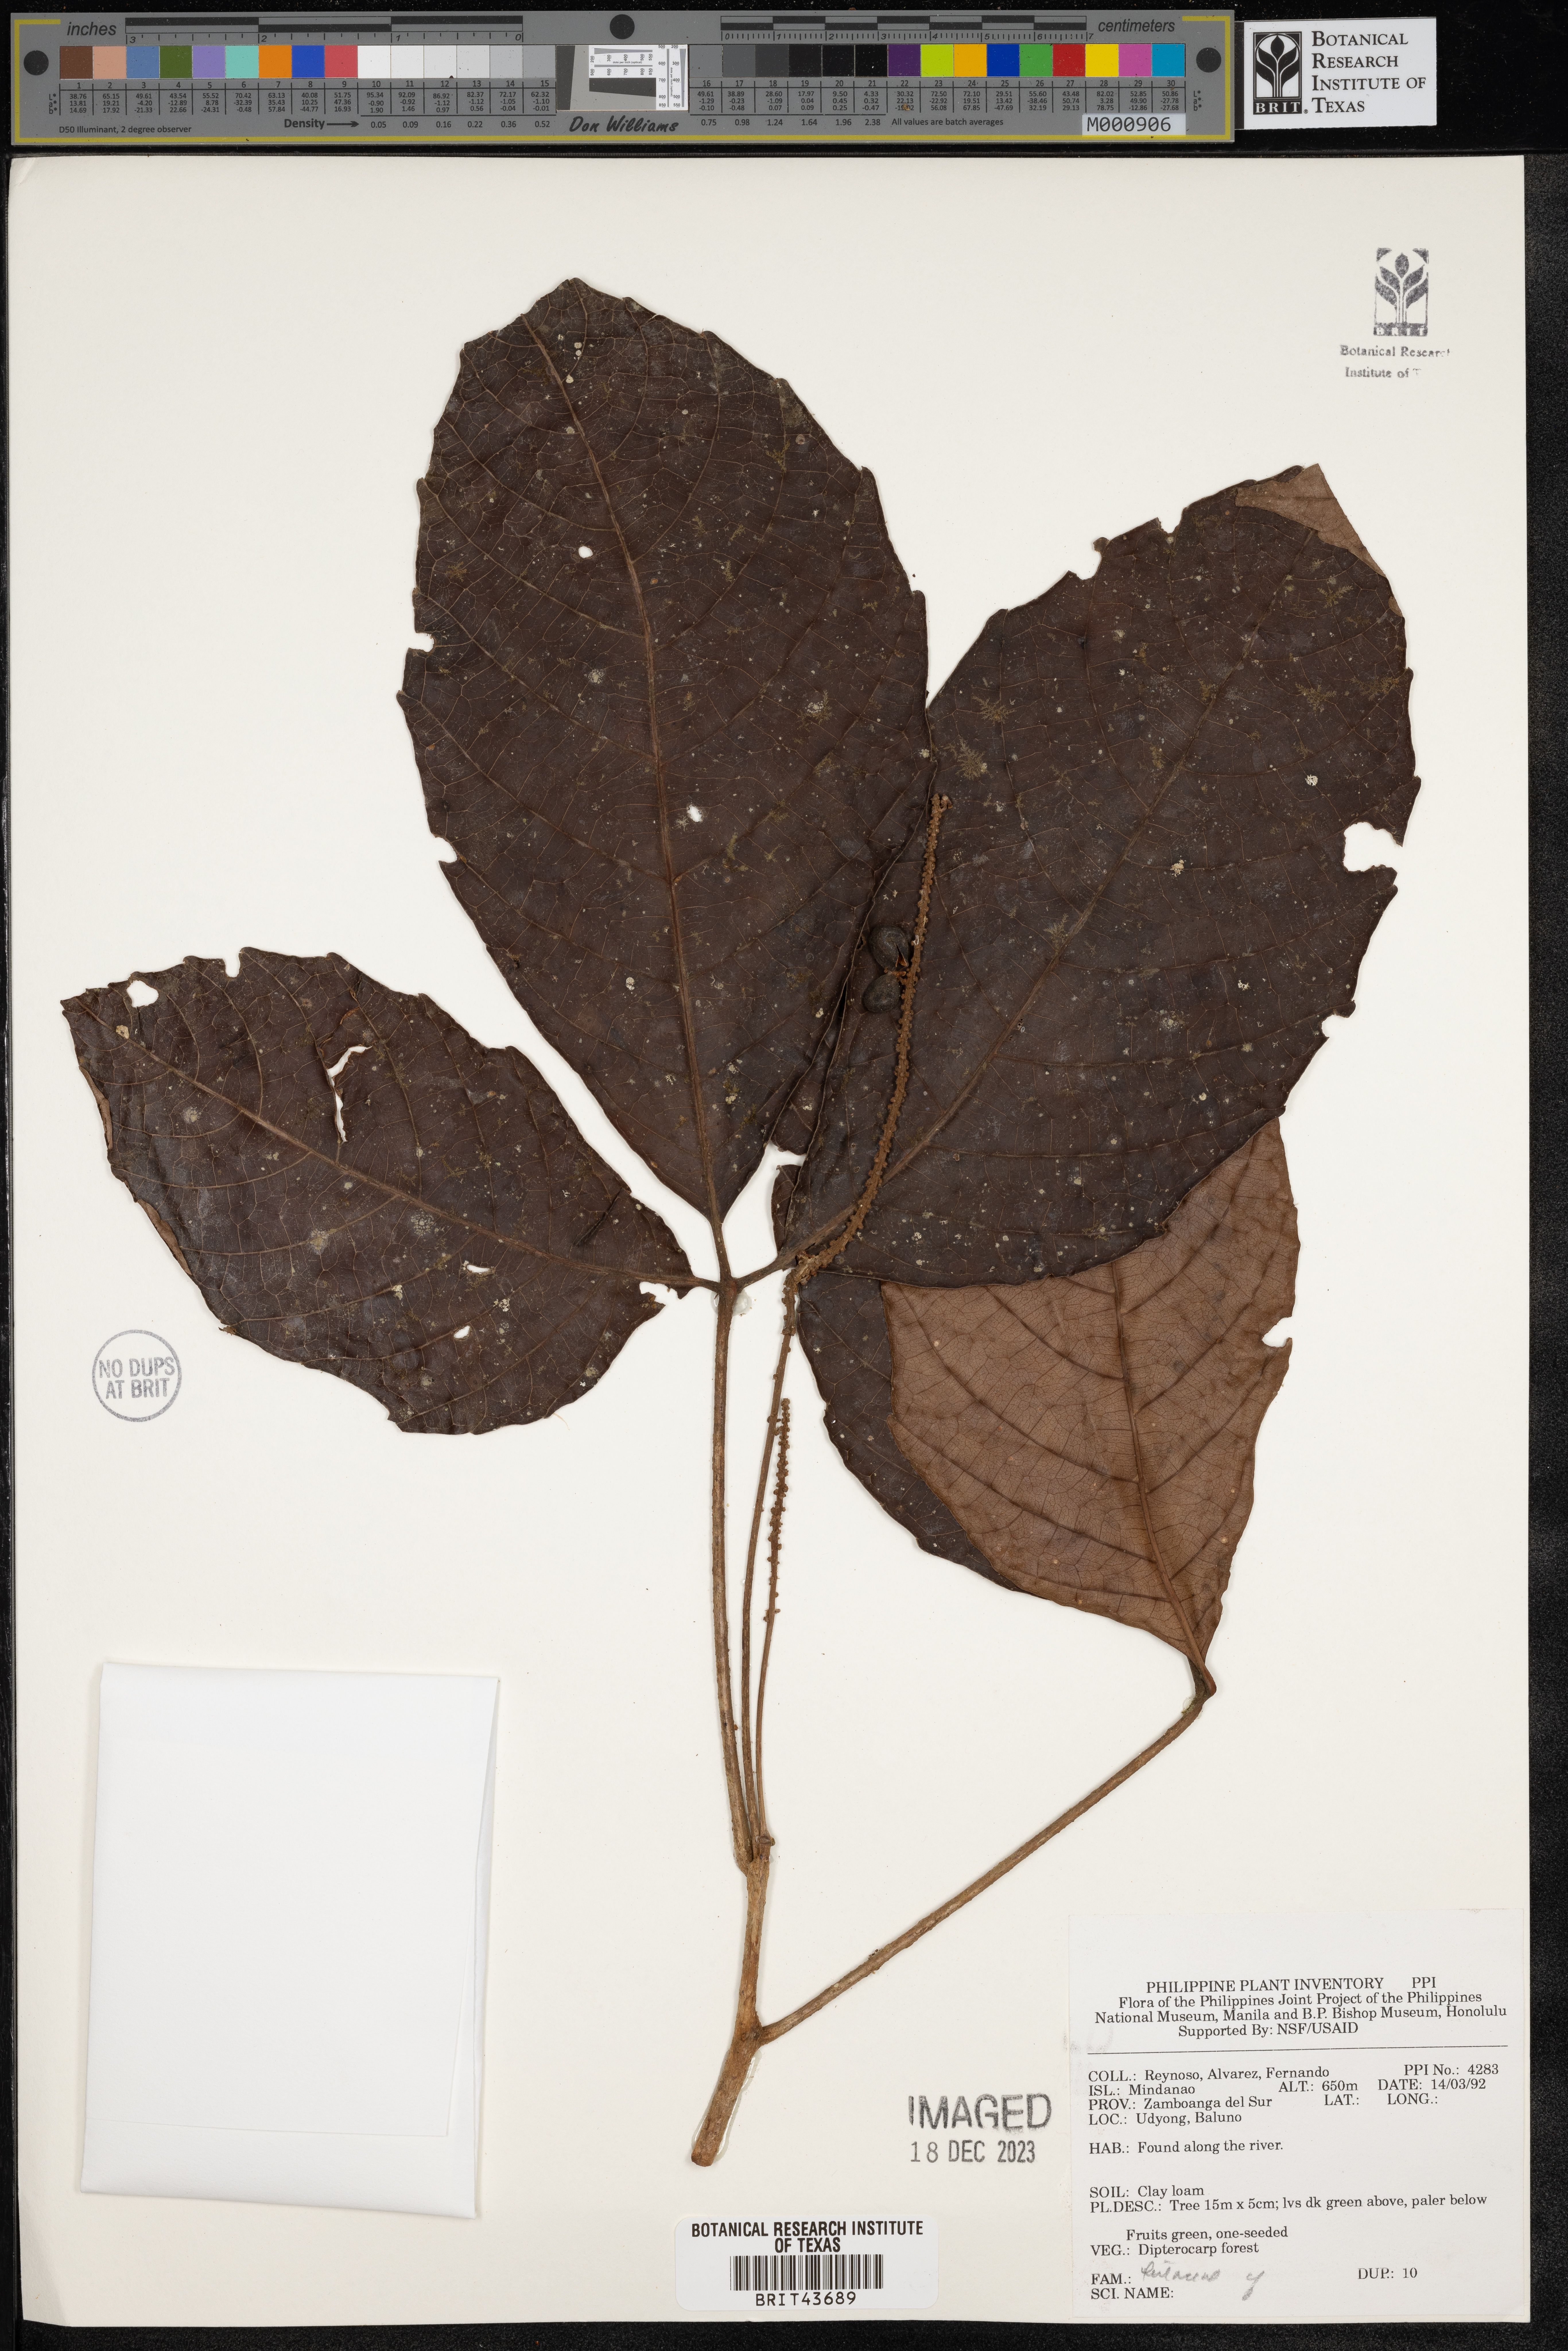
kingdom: Plantae
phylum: Tracheophyta
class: Magnoliopsida
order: Sapindales
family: Rutaceae
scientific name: Rutaceae
